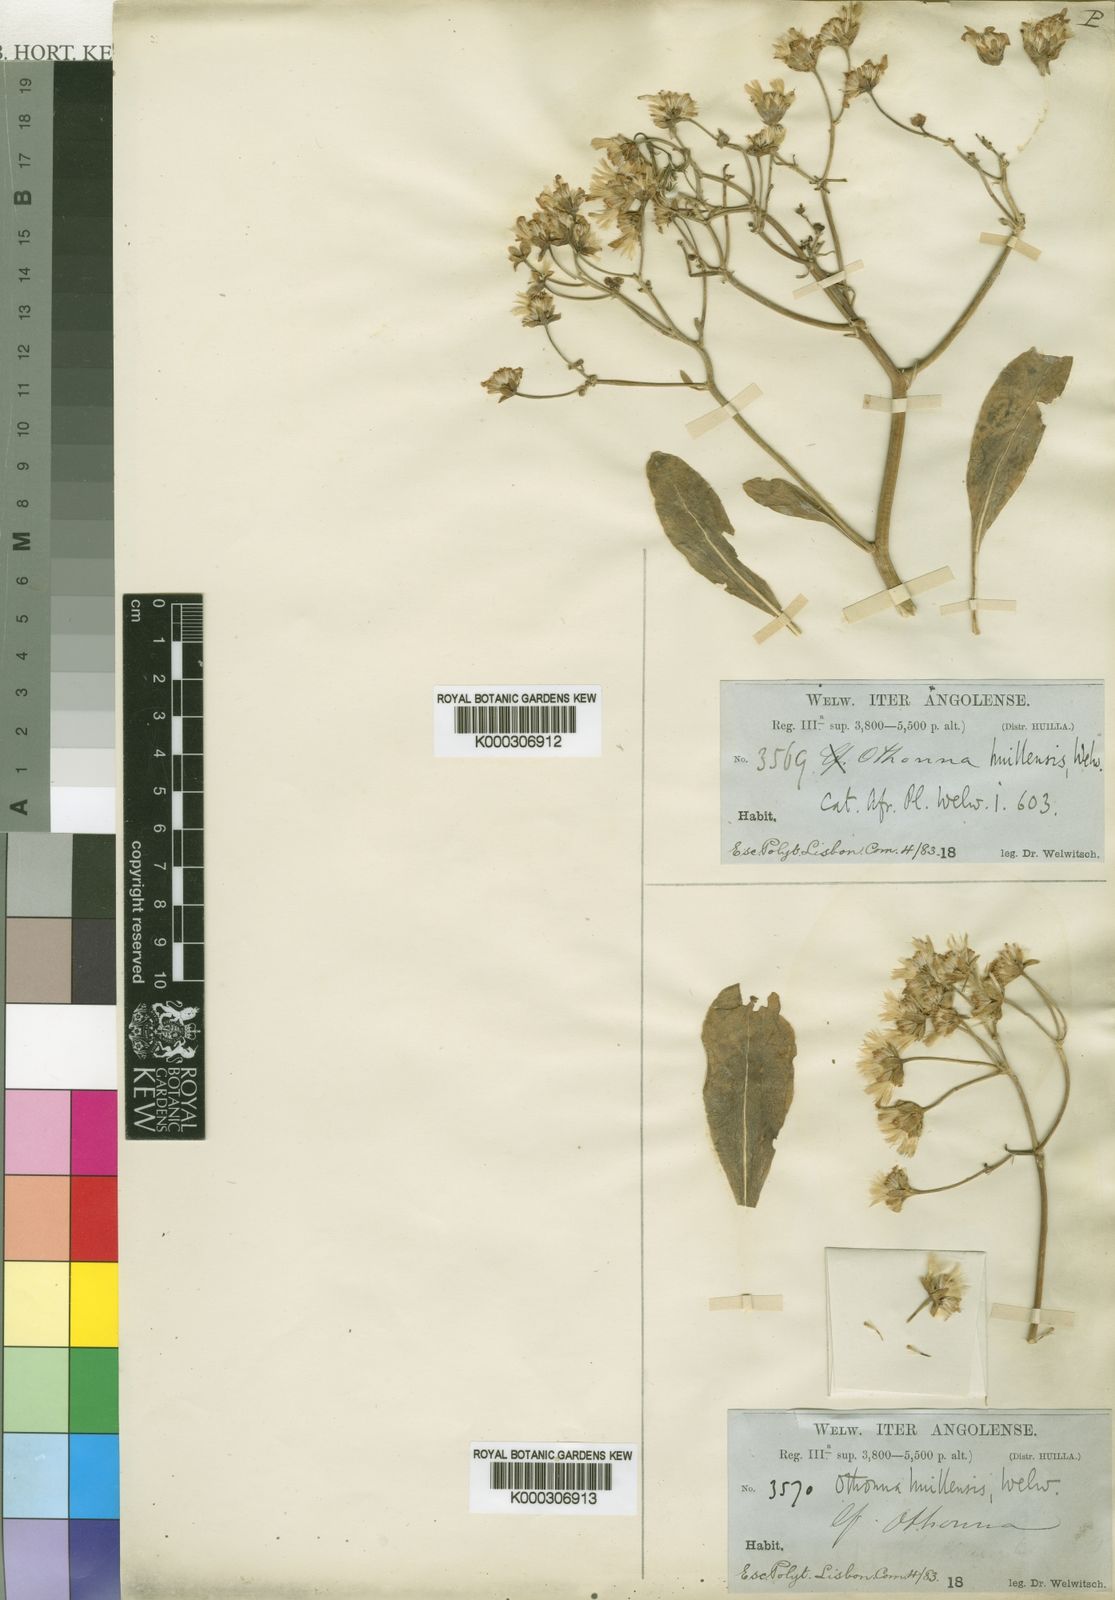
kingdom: Plantae
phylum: Tracheophyta
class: Magnoliopsida
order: Asterales
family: Asteraceae
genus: Othonna
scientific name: Othonna huillensis
